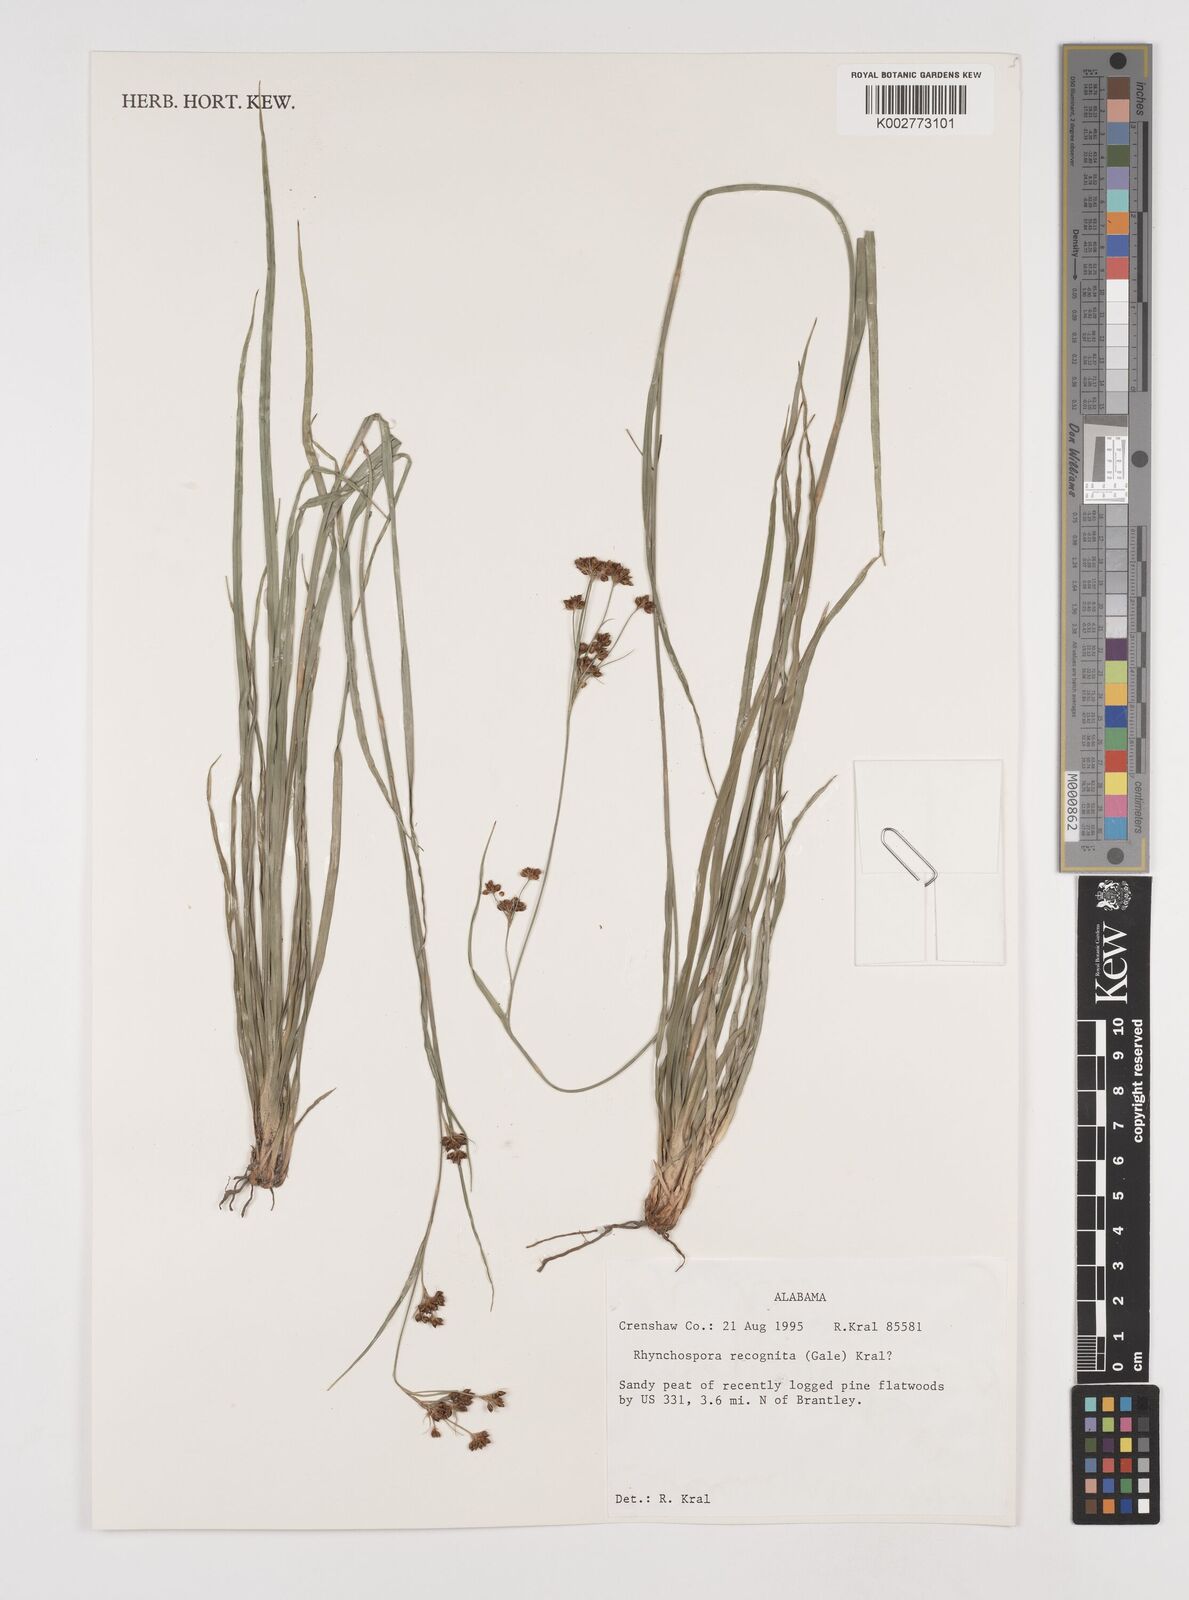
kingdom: Plantae
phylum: Tracheophyta
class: Liliopsida
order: Poales
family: Cyperaceae
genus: Rhynchospora
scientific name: Rhynchospora recognita
